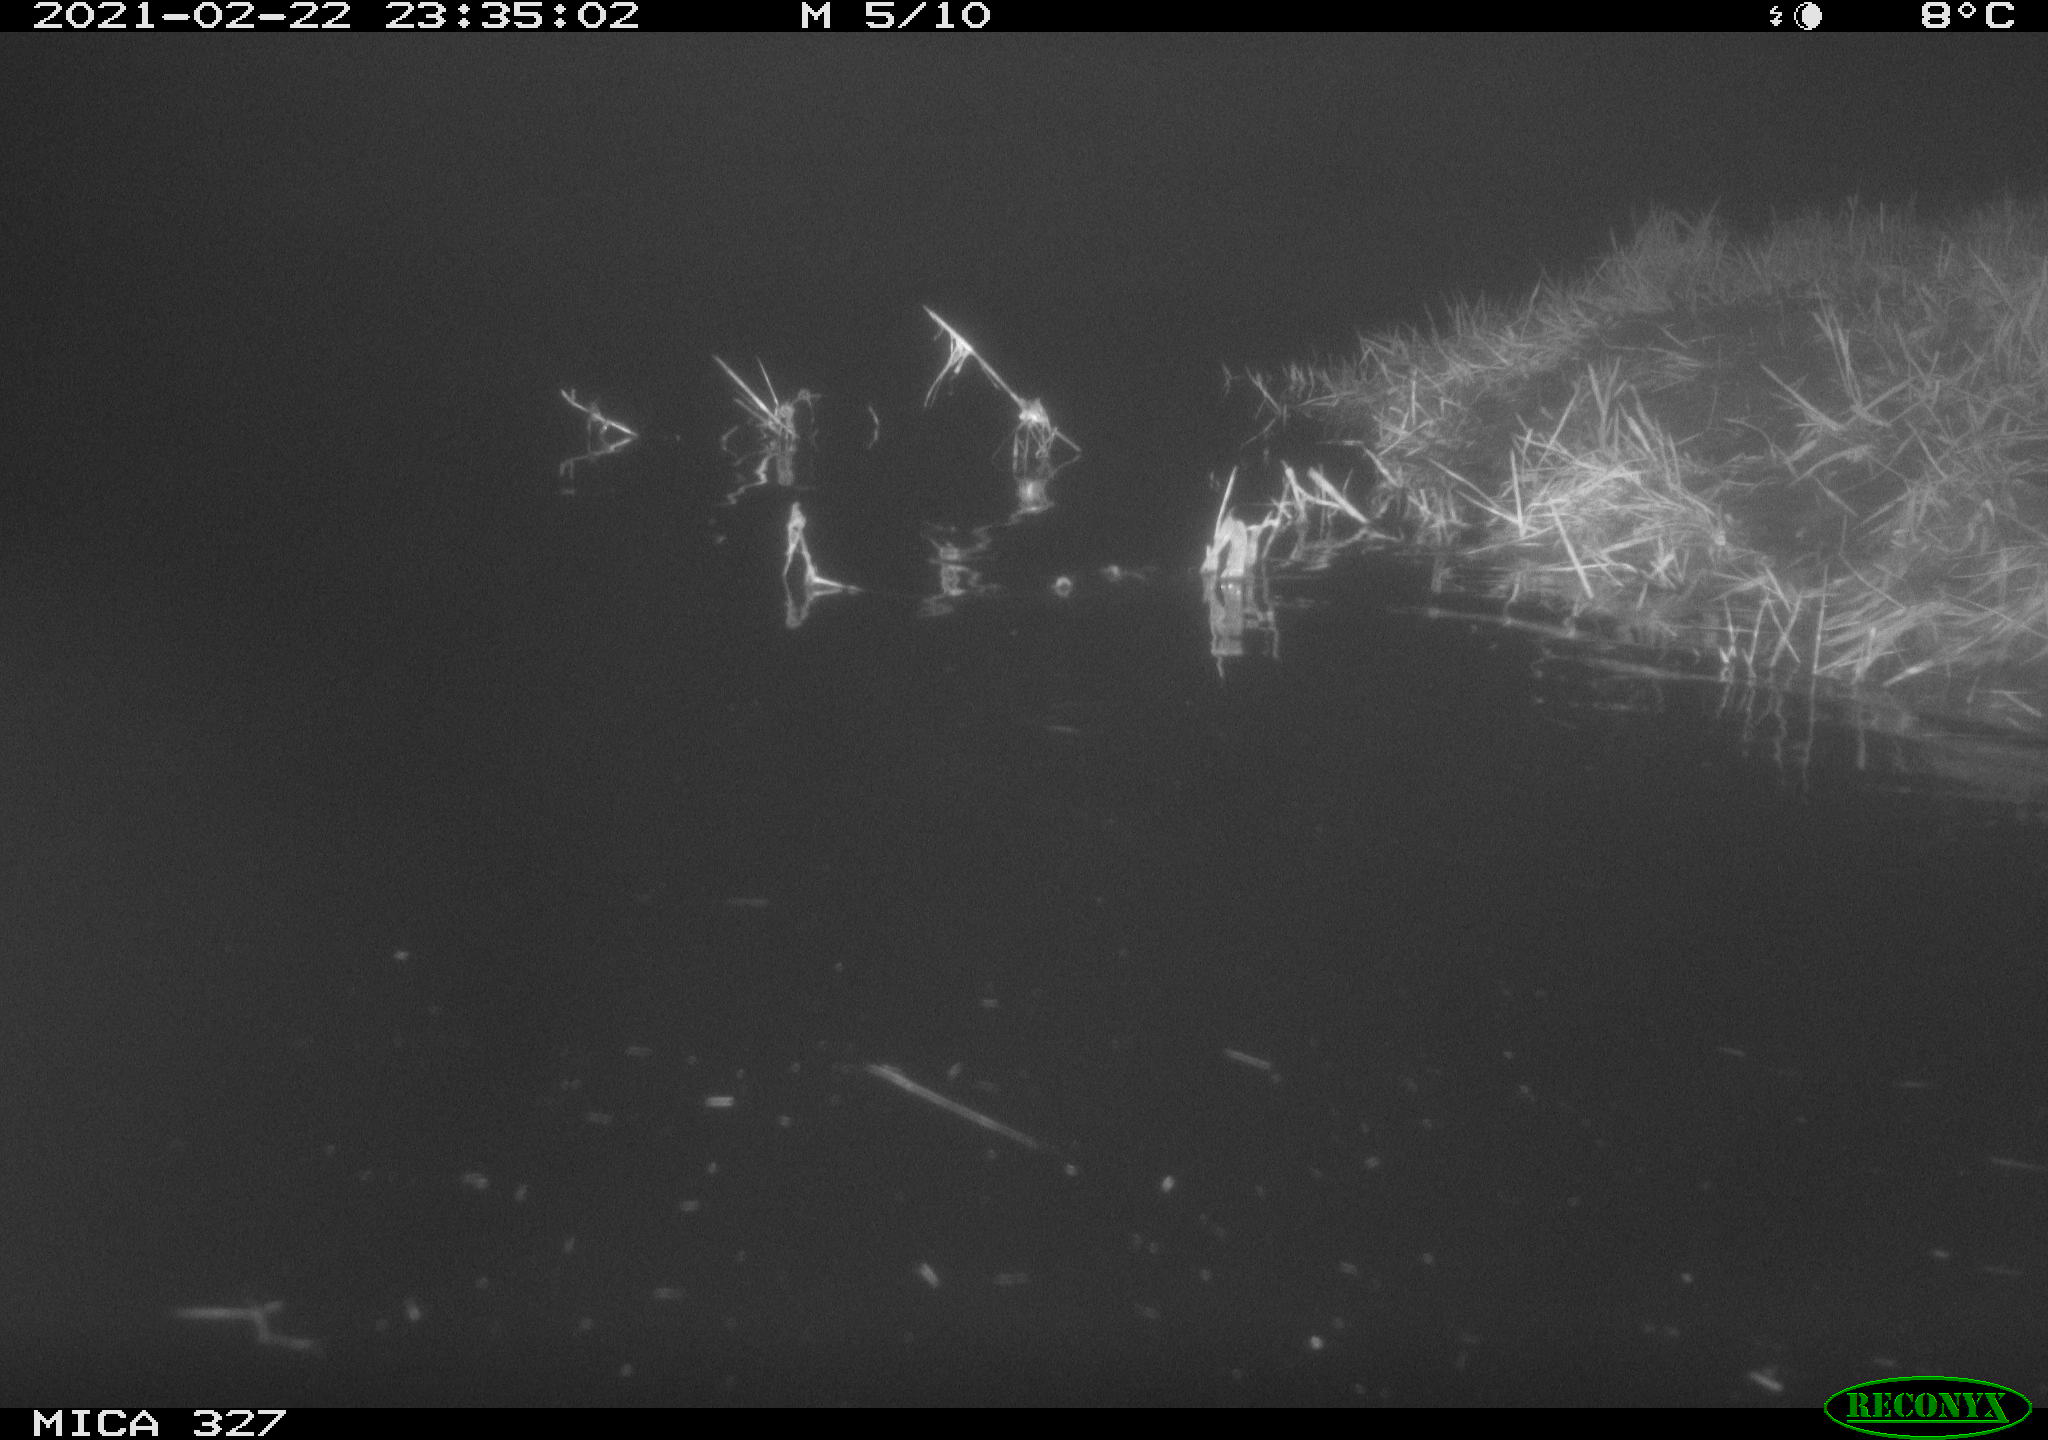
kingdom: Animalia
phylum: Chordata
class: Mammalia
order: Rodentia
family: Cricetidae
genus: Ondatra
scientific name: Ondatra zibethicus
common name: Muskrat
